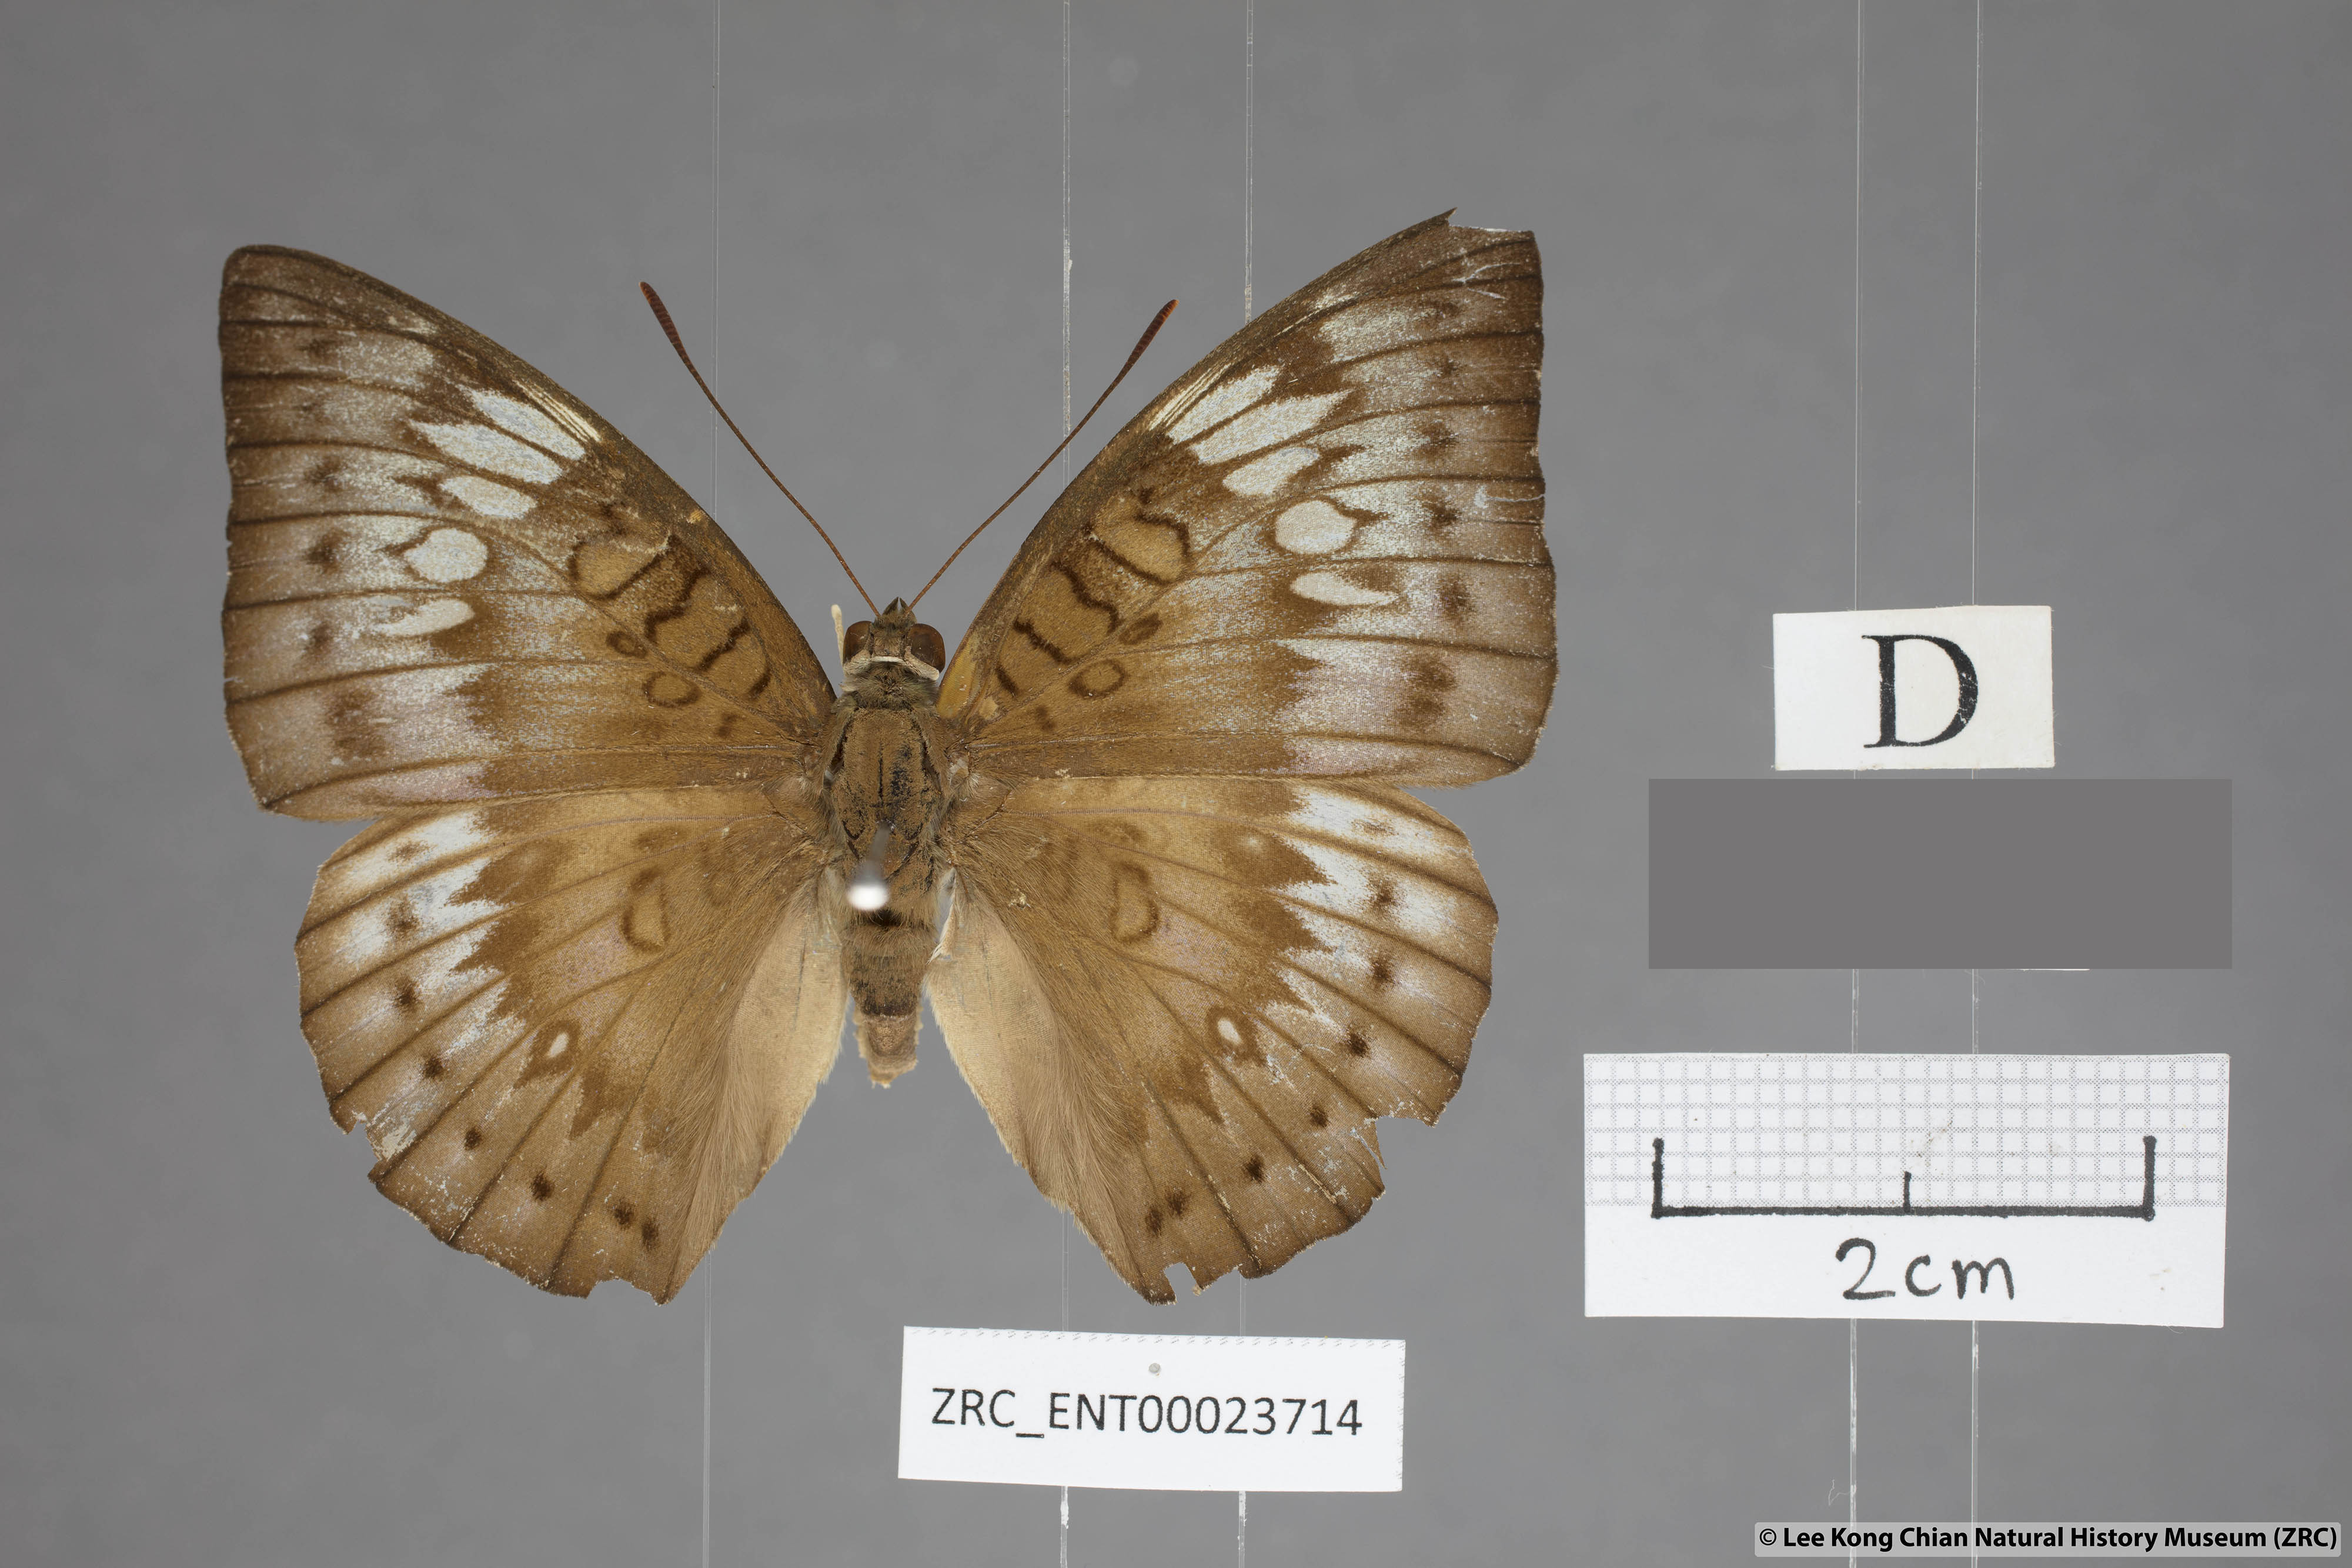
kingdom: Animalia
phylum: Arthropoda
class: Insecta
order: Lepidoptera
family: Nymphalidae
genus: Euthalia
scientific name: Euthalia merta
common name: White tipped baron
